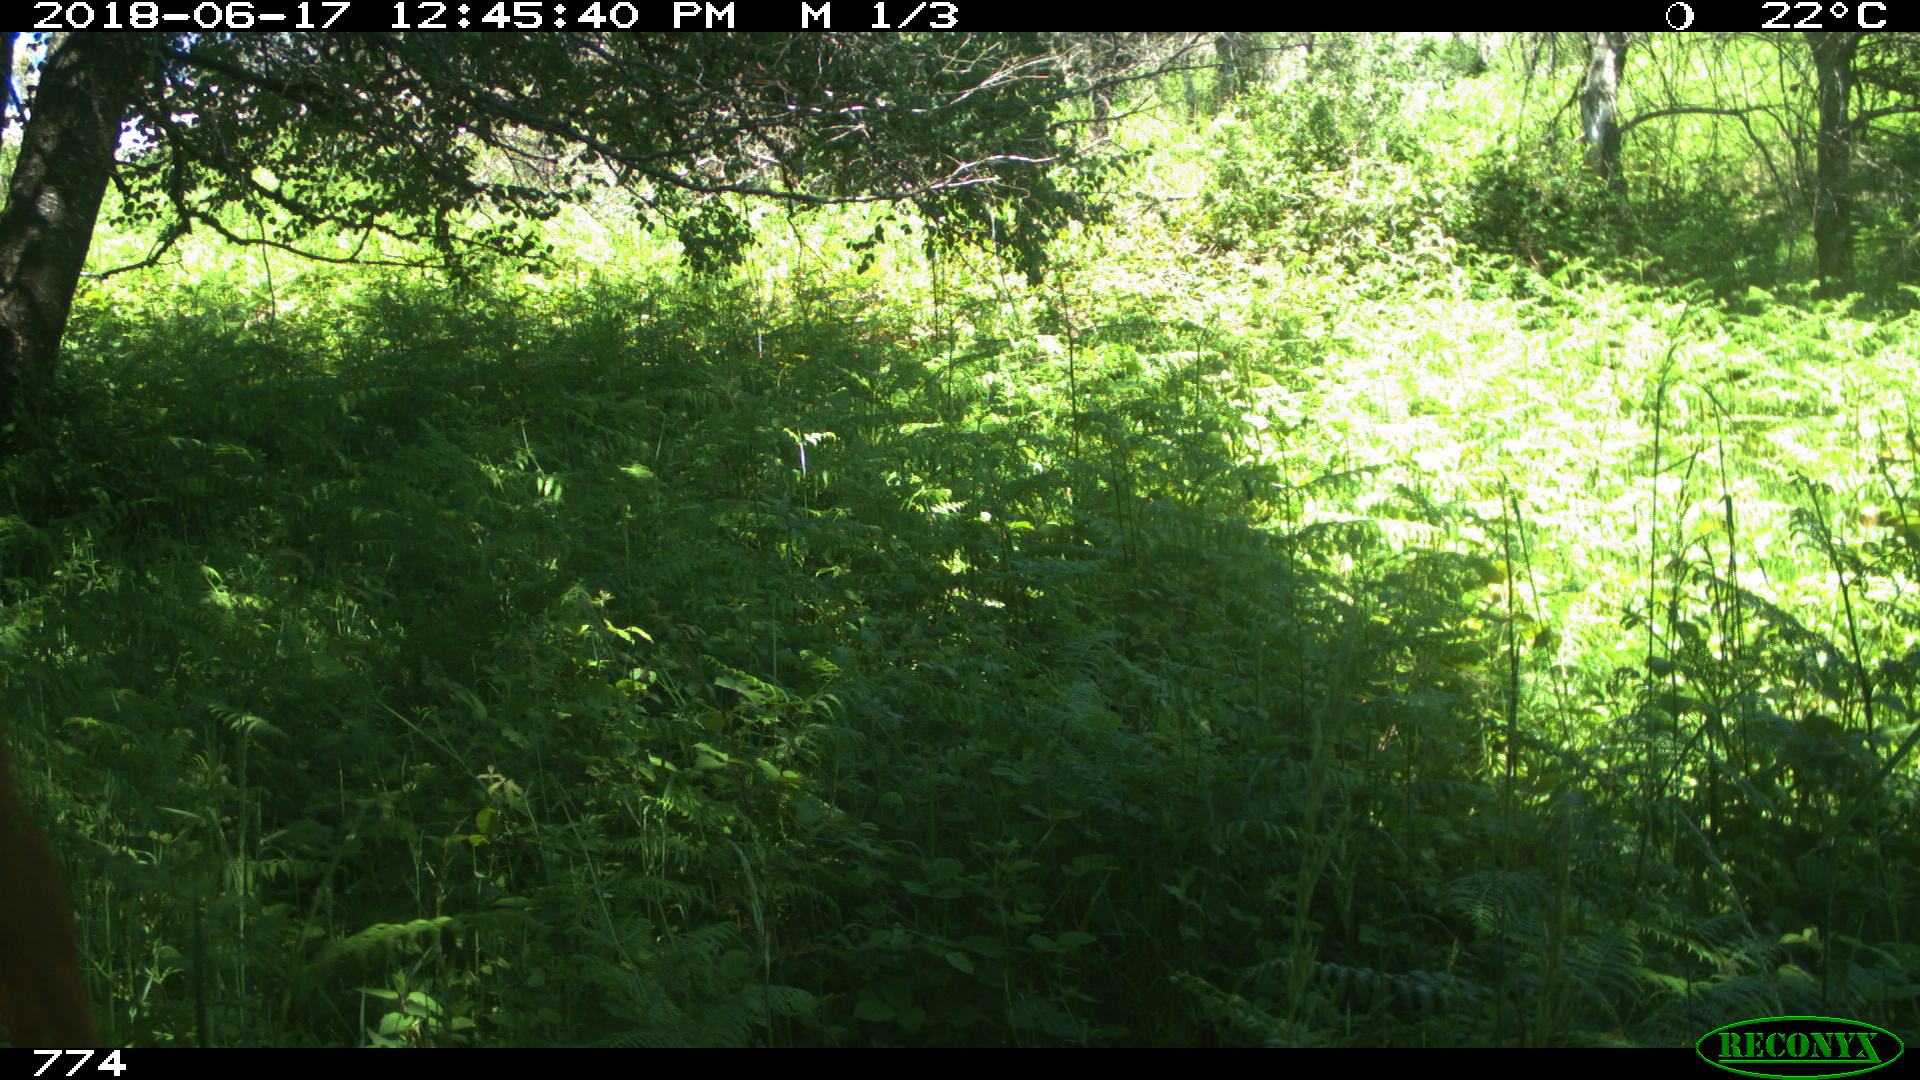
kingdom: Animalia
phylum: Chordata
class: Mammalia
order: Artiodactyla
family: Bovidae
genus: Bos
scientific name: Bos taurus
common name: Domesticated cattle
